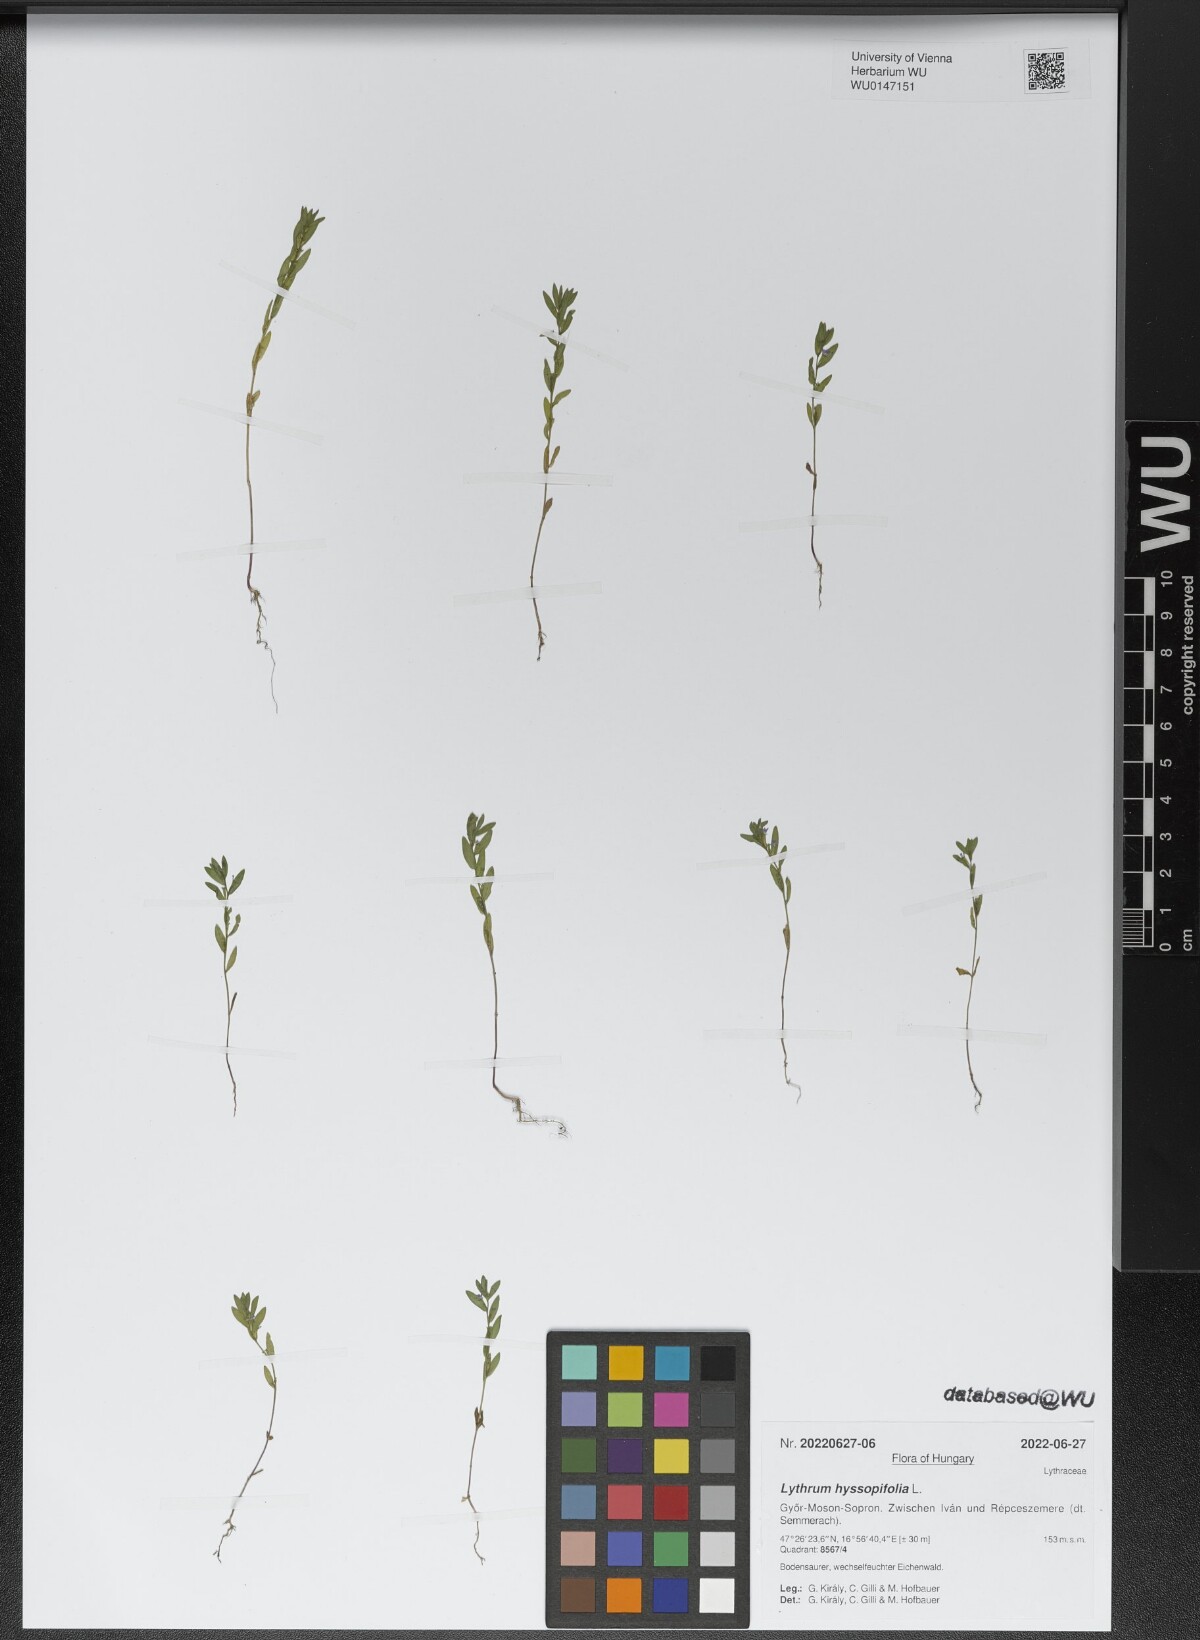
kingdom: Plantae
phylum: Tracheophyta
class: Magnoliopsida
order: Myrtales
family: Lythraceae
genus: Lythrum
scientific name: Lythrum hyssopifolia
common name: Grass-poly
